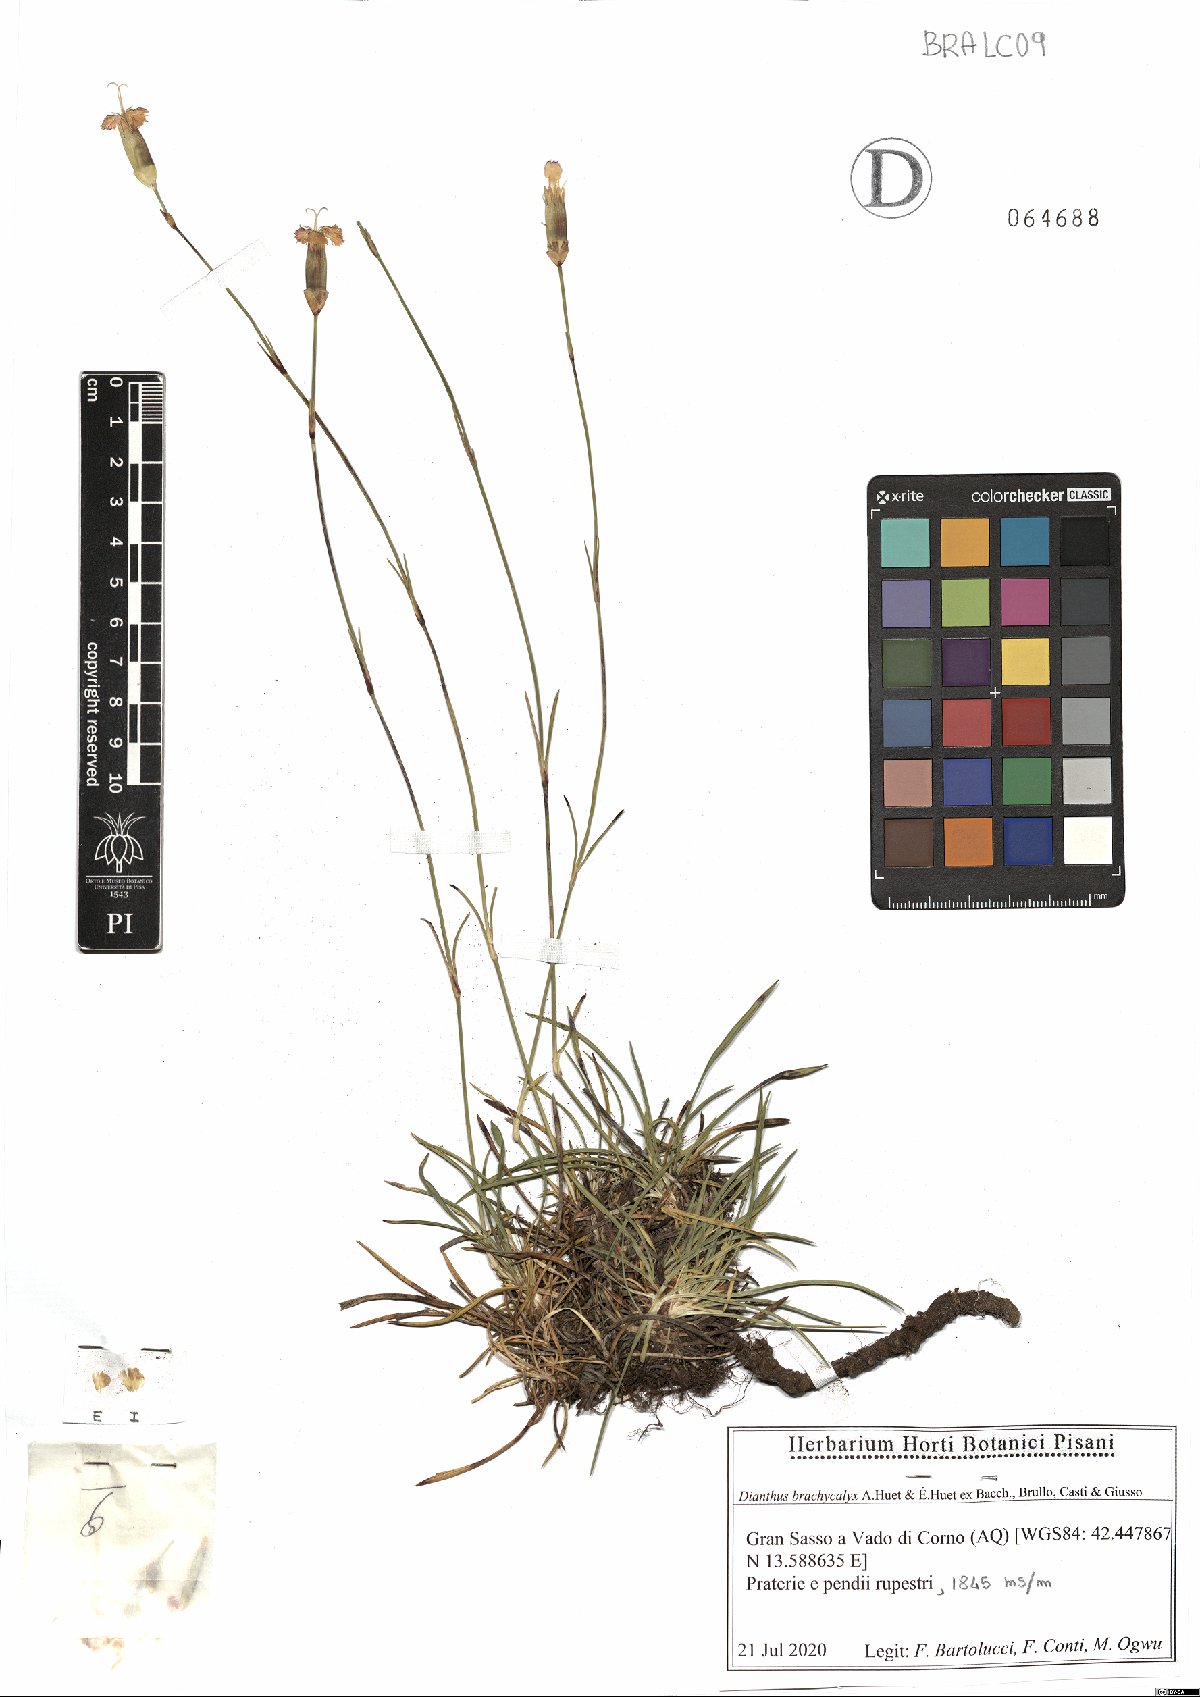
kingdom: Plantae
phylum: Tracheophyta
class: Magnoliopsida
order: Caryophyllales
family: Caryophyllaceae
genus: Dianthus
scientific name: Dianthus brachycalyx
